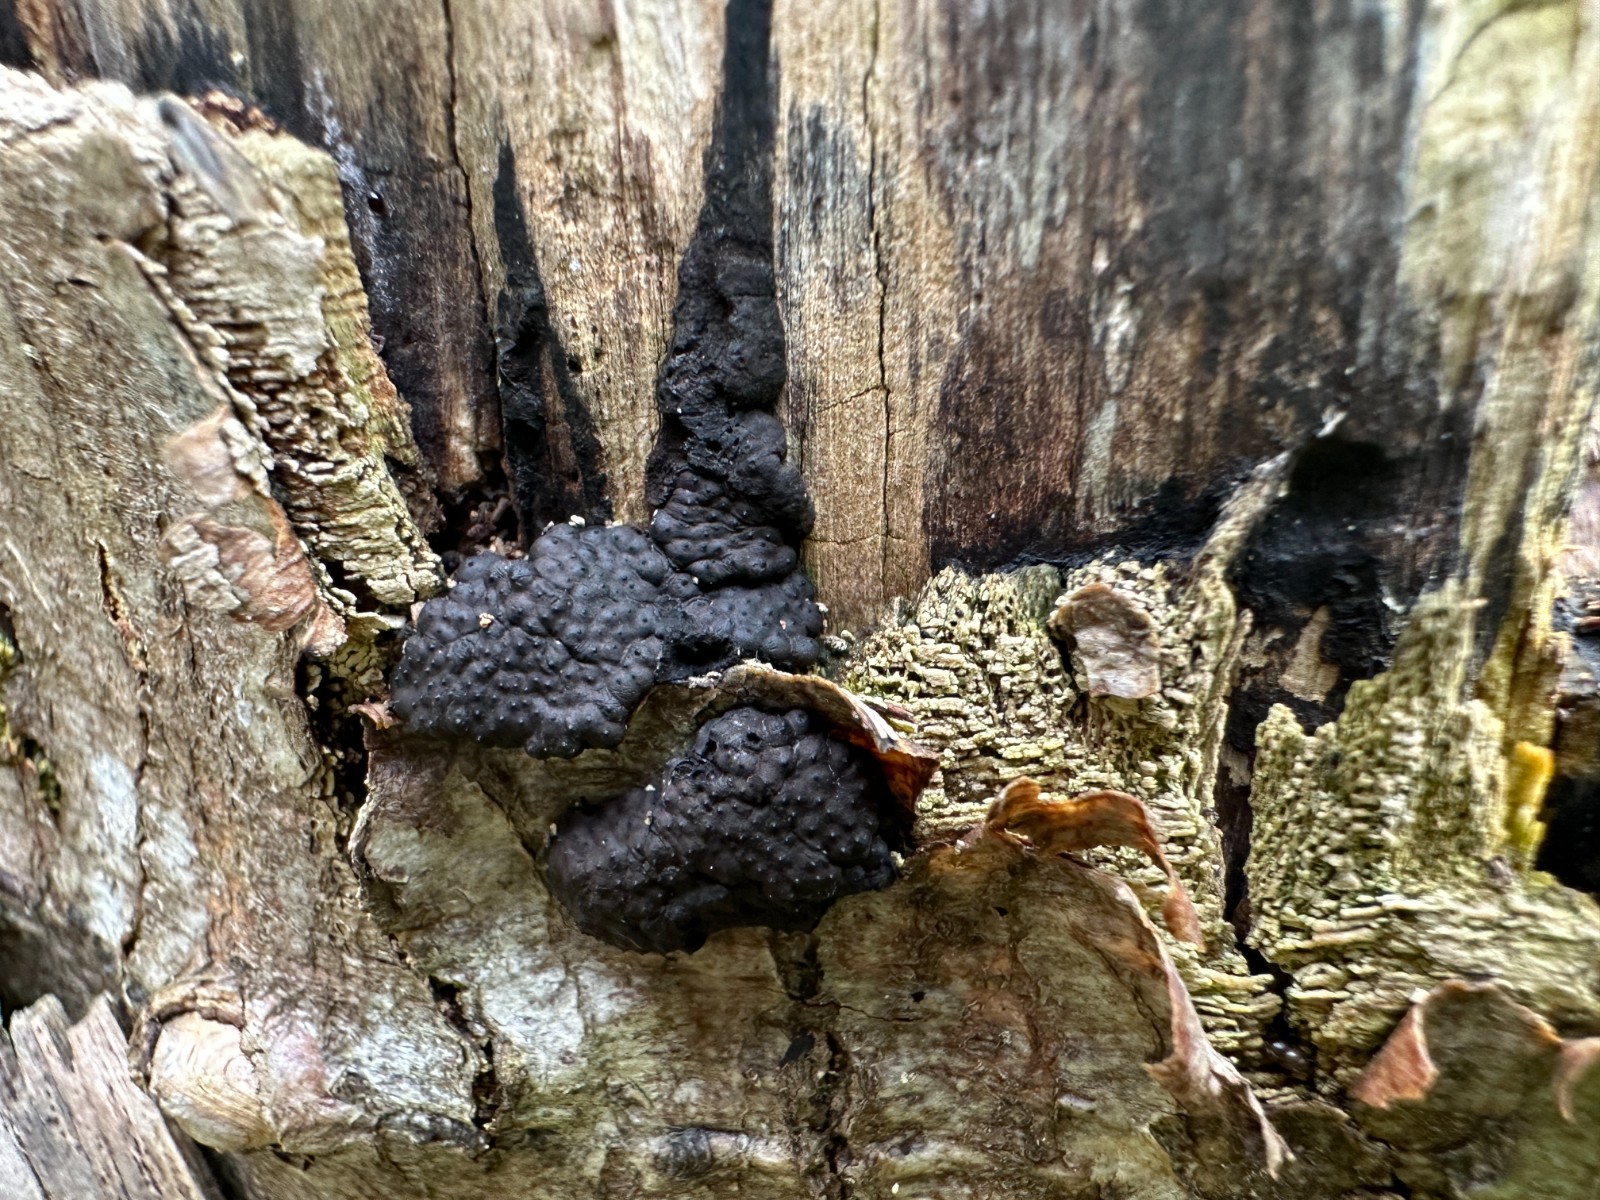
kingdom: Fungi
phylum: Ascomycota
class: Sordariomycetes
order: Xylariales
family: Hypoxylaceae
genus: Jackrogersella
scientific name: Jackrogersella cohaerens
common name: sammenflydende kulbær
